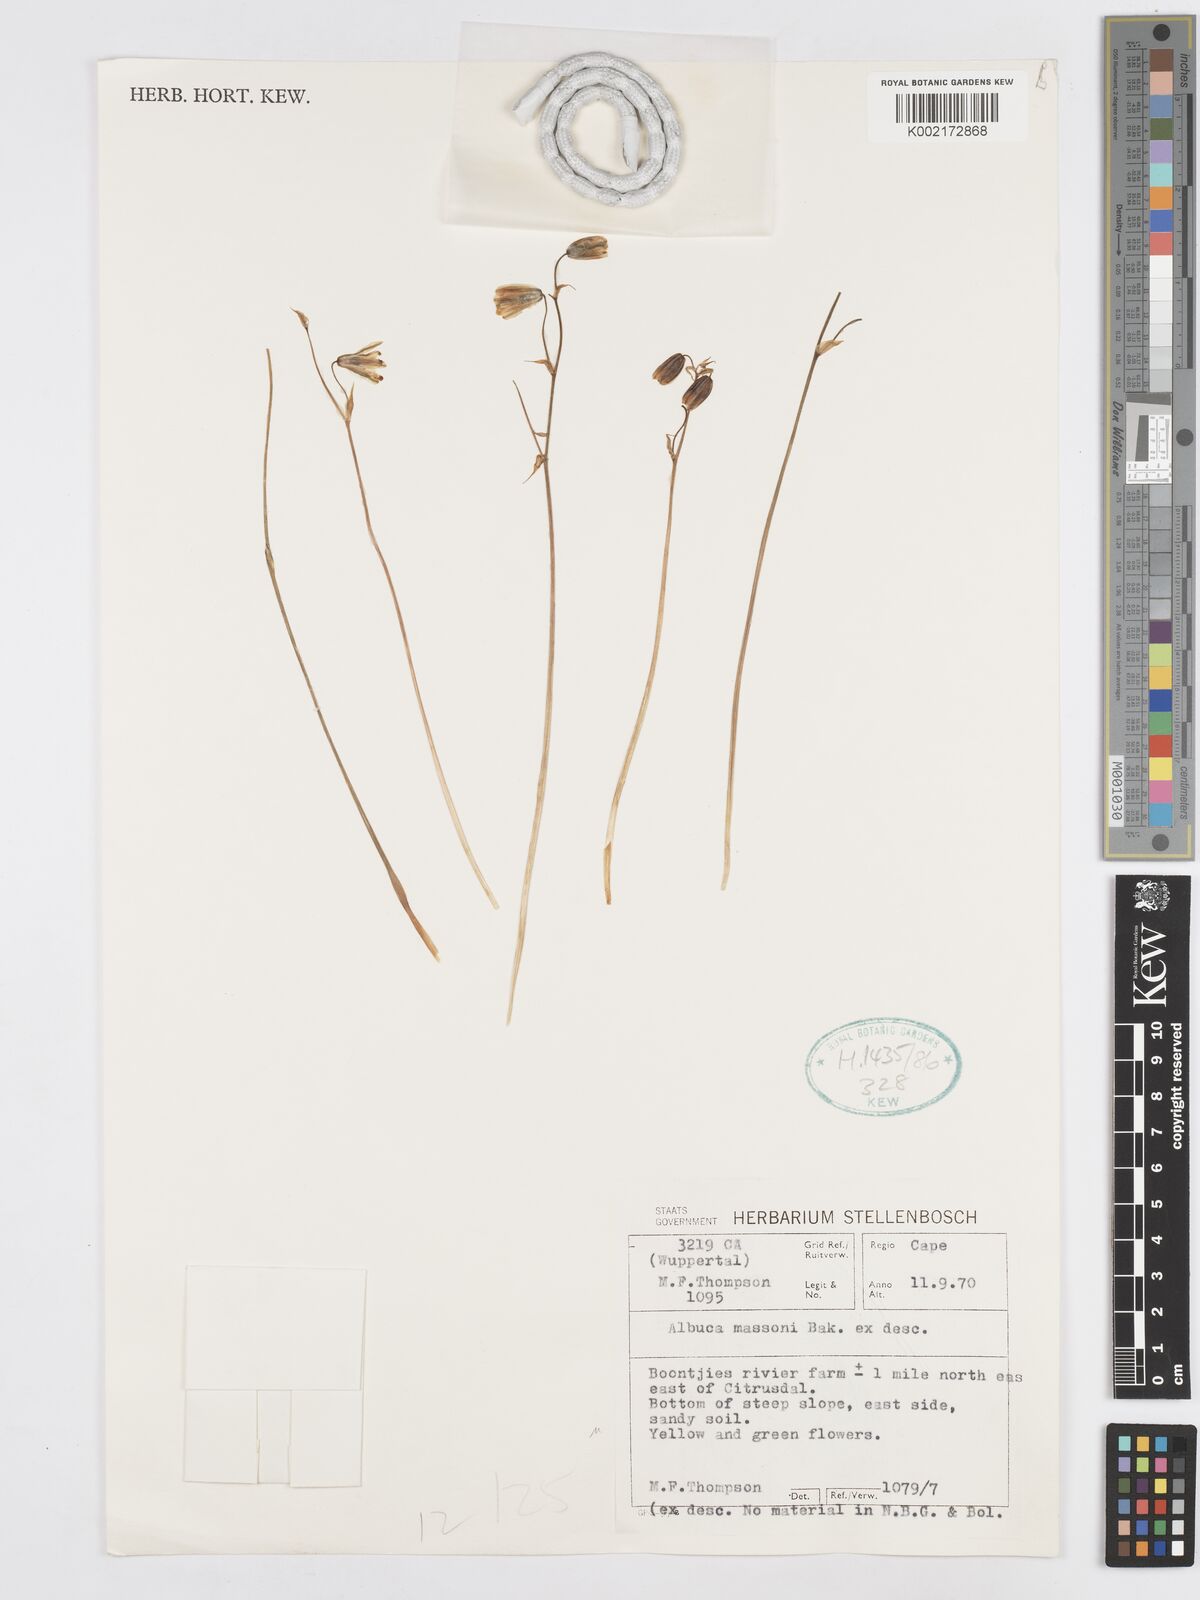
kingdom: Plantae
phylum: Tracheophyta
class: Liliopsida
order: Asparagales
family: Asparagaceae
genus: Albuca
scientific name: Albuca massonii
